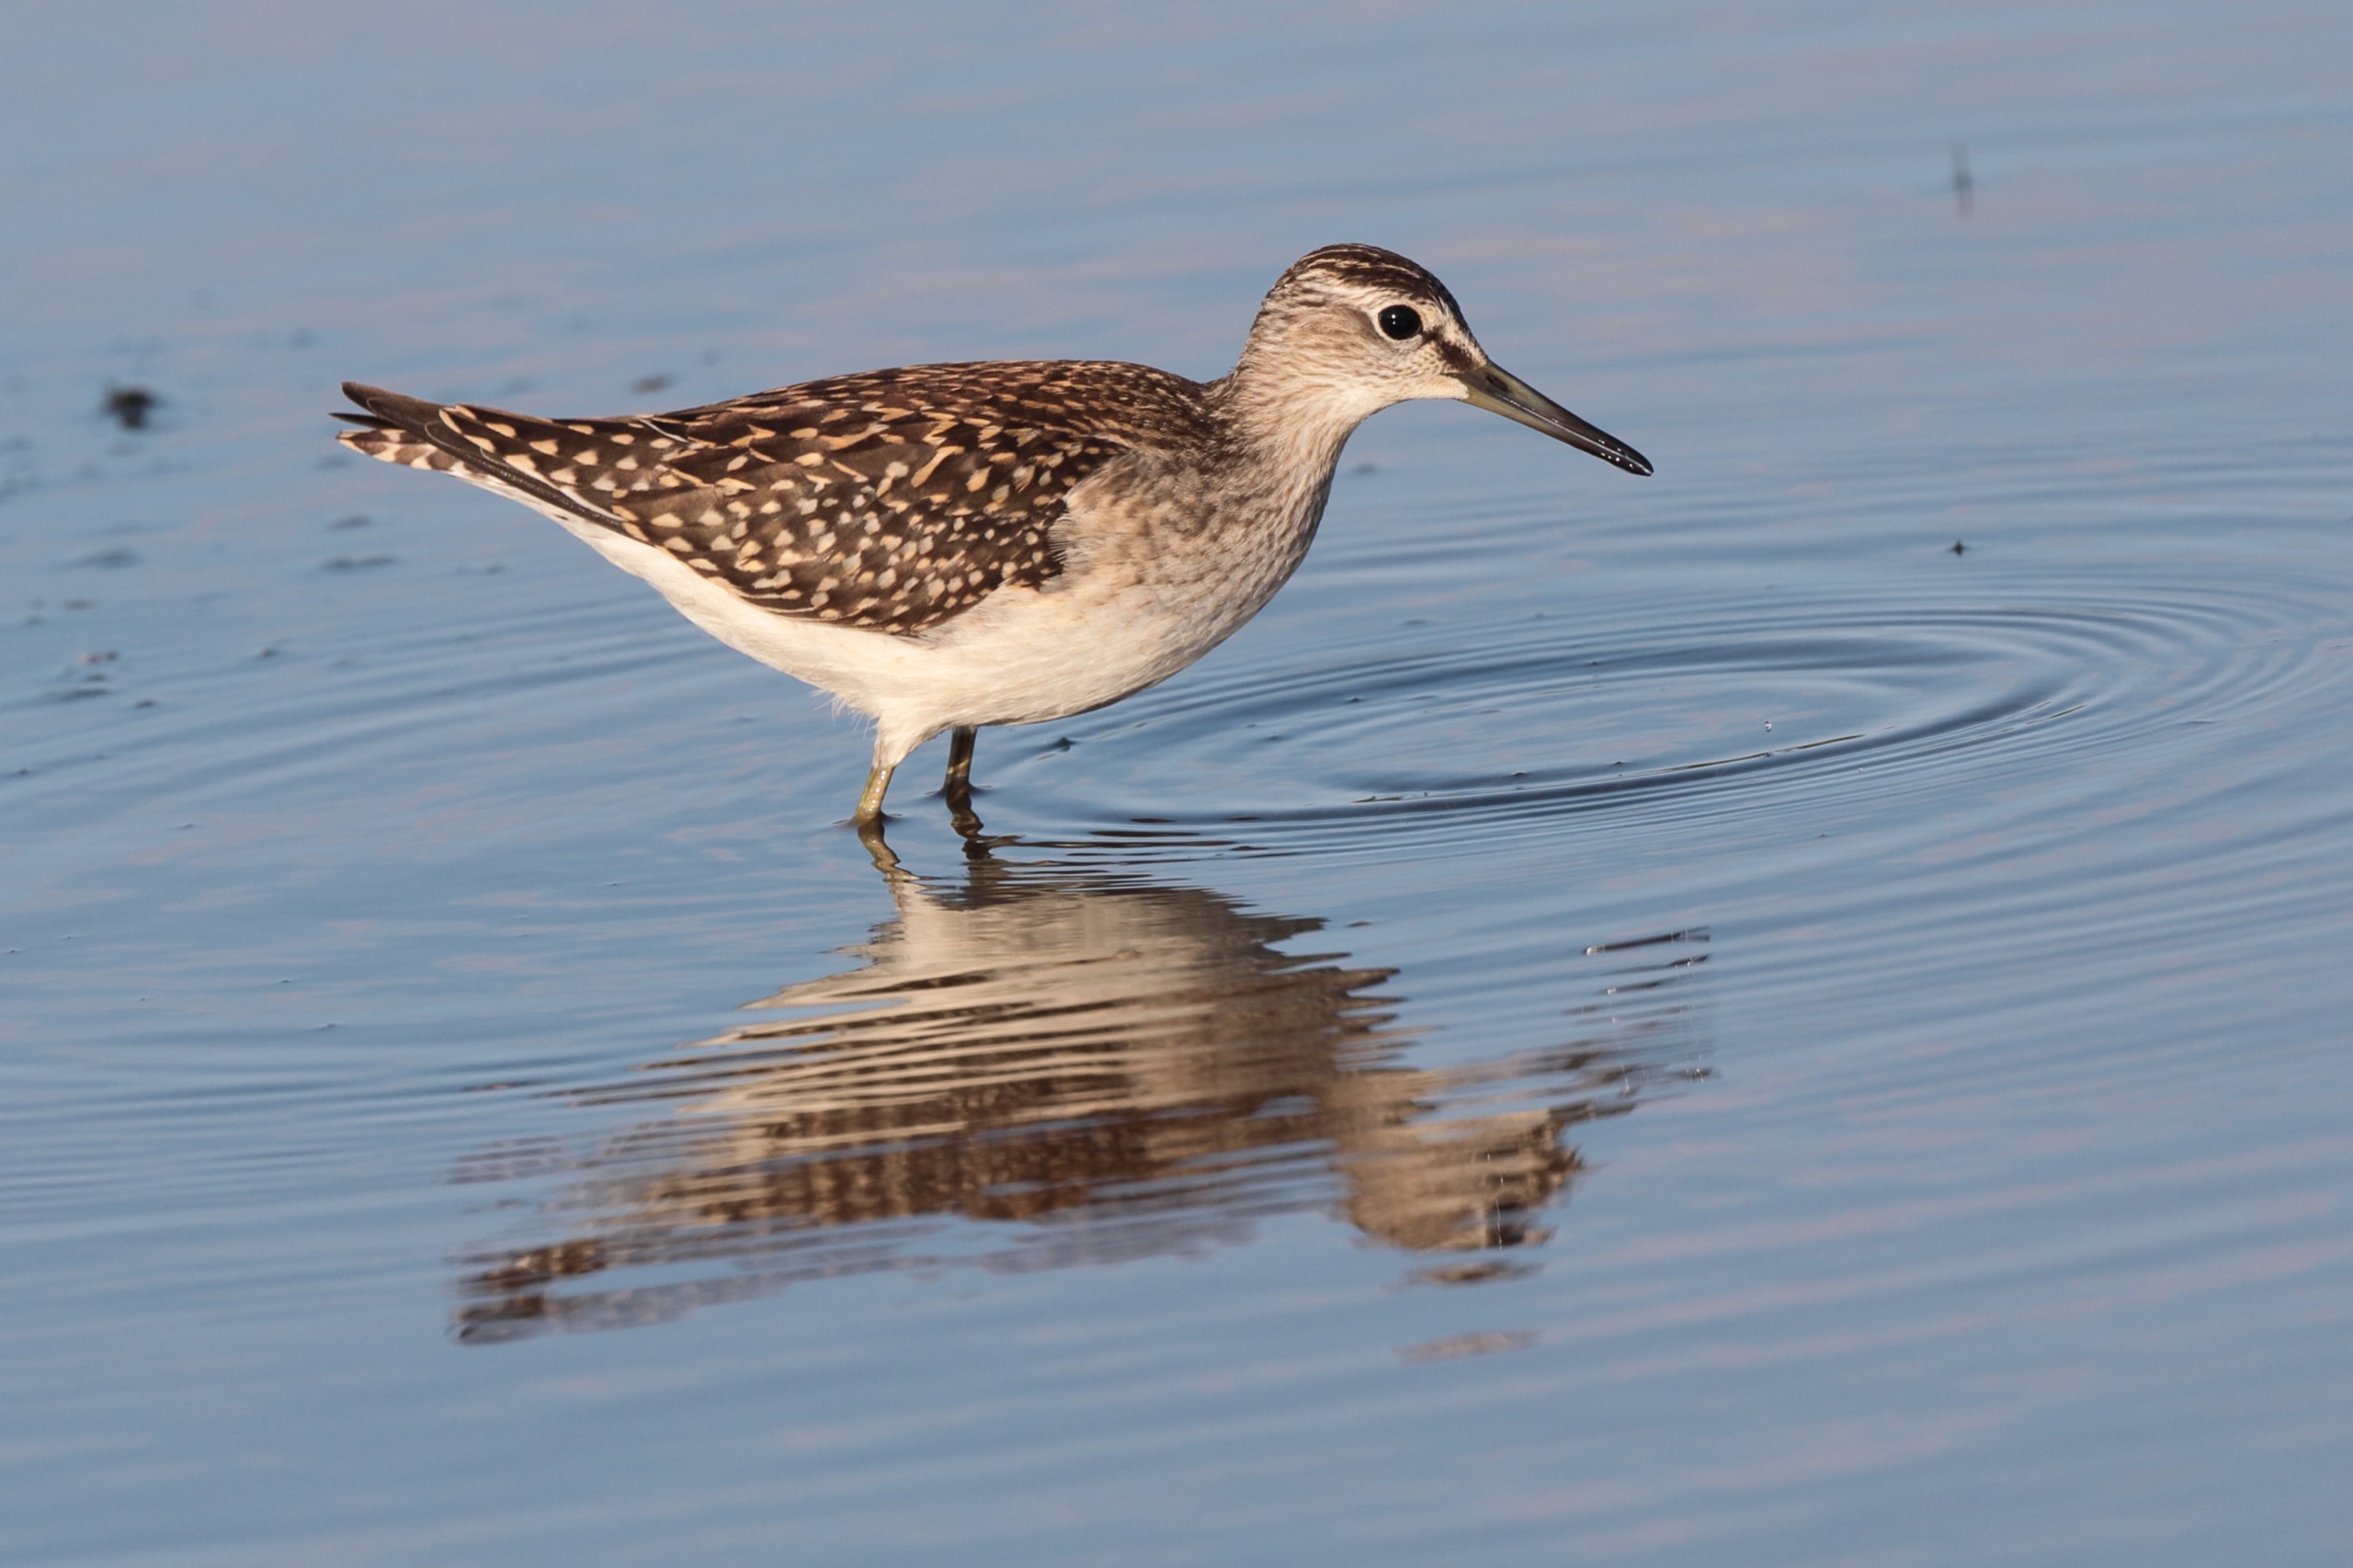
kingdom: Animalia
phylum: Chordata
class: Aves
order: Charadriiformes
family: Scolopacidae
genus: Tringa
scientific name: Tringa glareola
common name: Tinksmed
